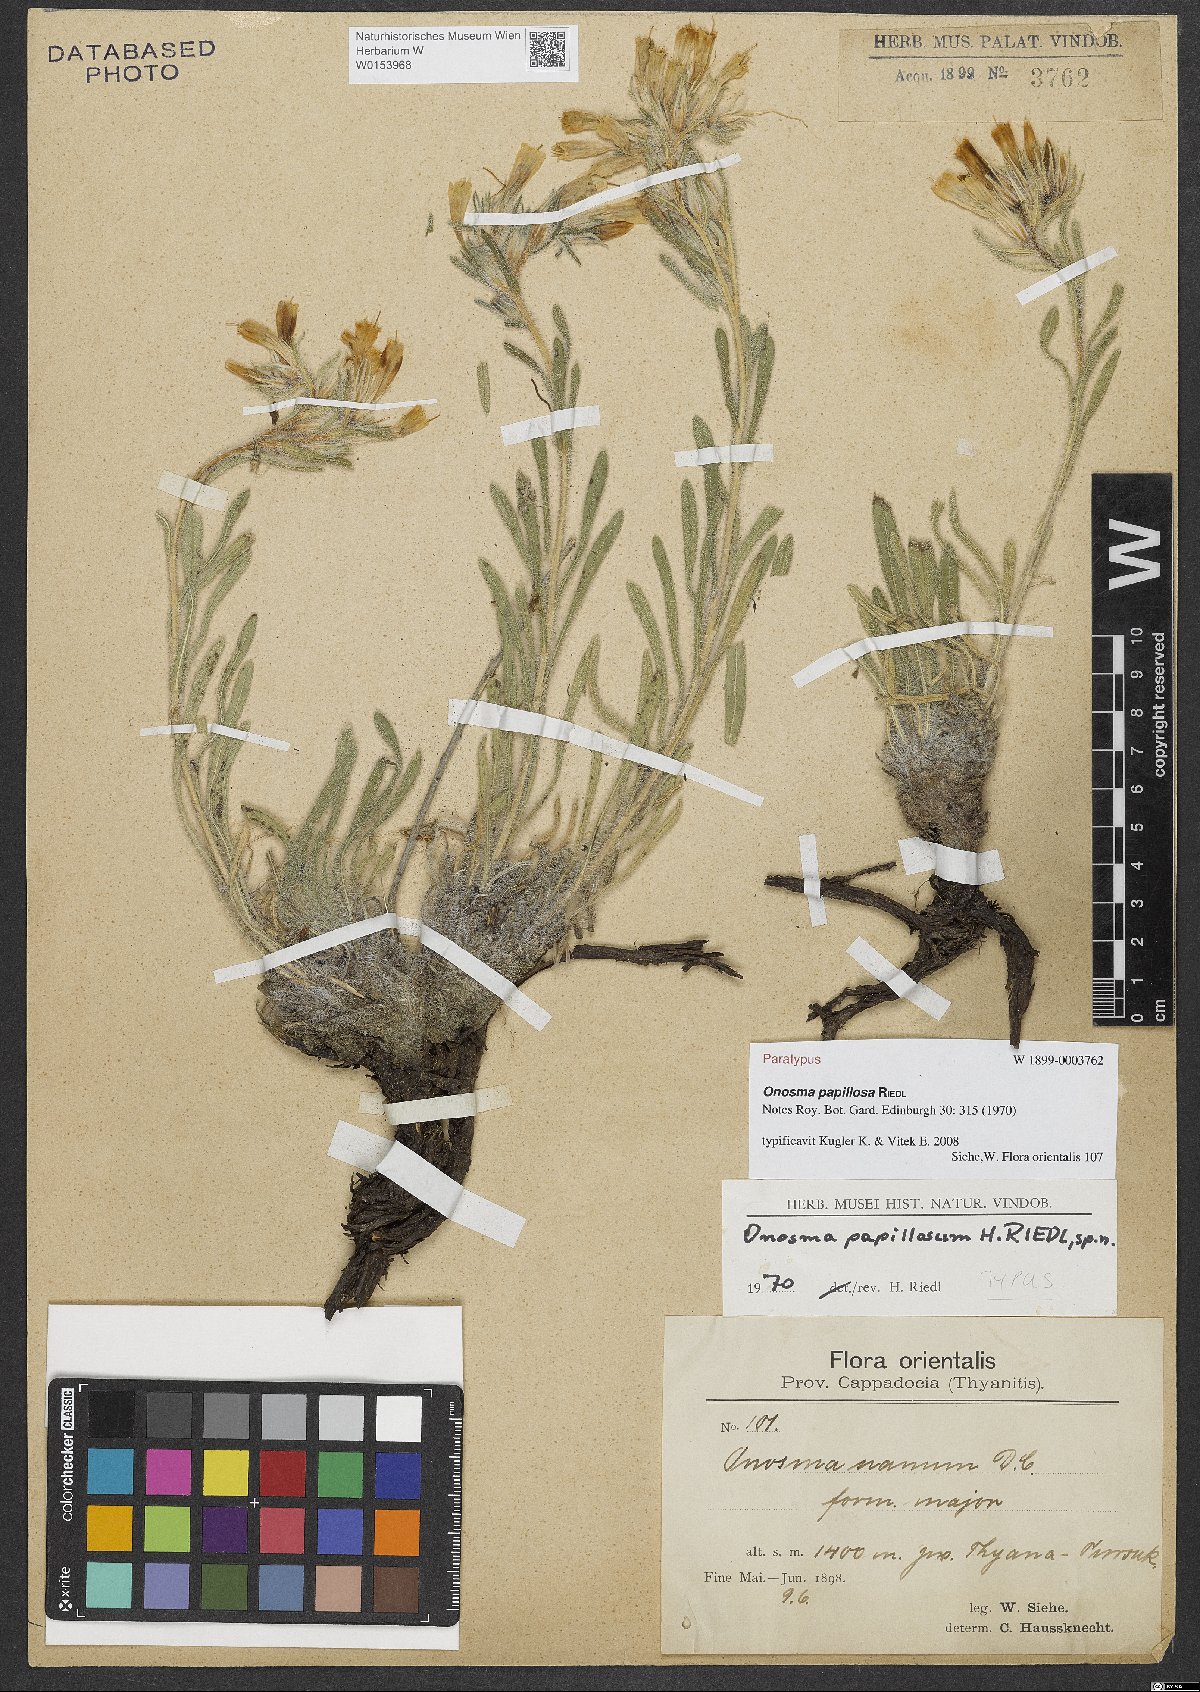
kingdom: Plantae
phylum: Tracheophyta
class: Magnoliopsida
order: Boraginales
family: Boraginaceae
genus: Onosma
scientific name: Onosma papillosa
